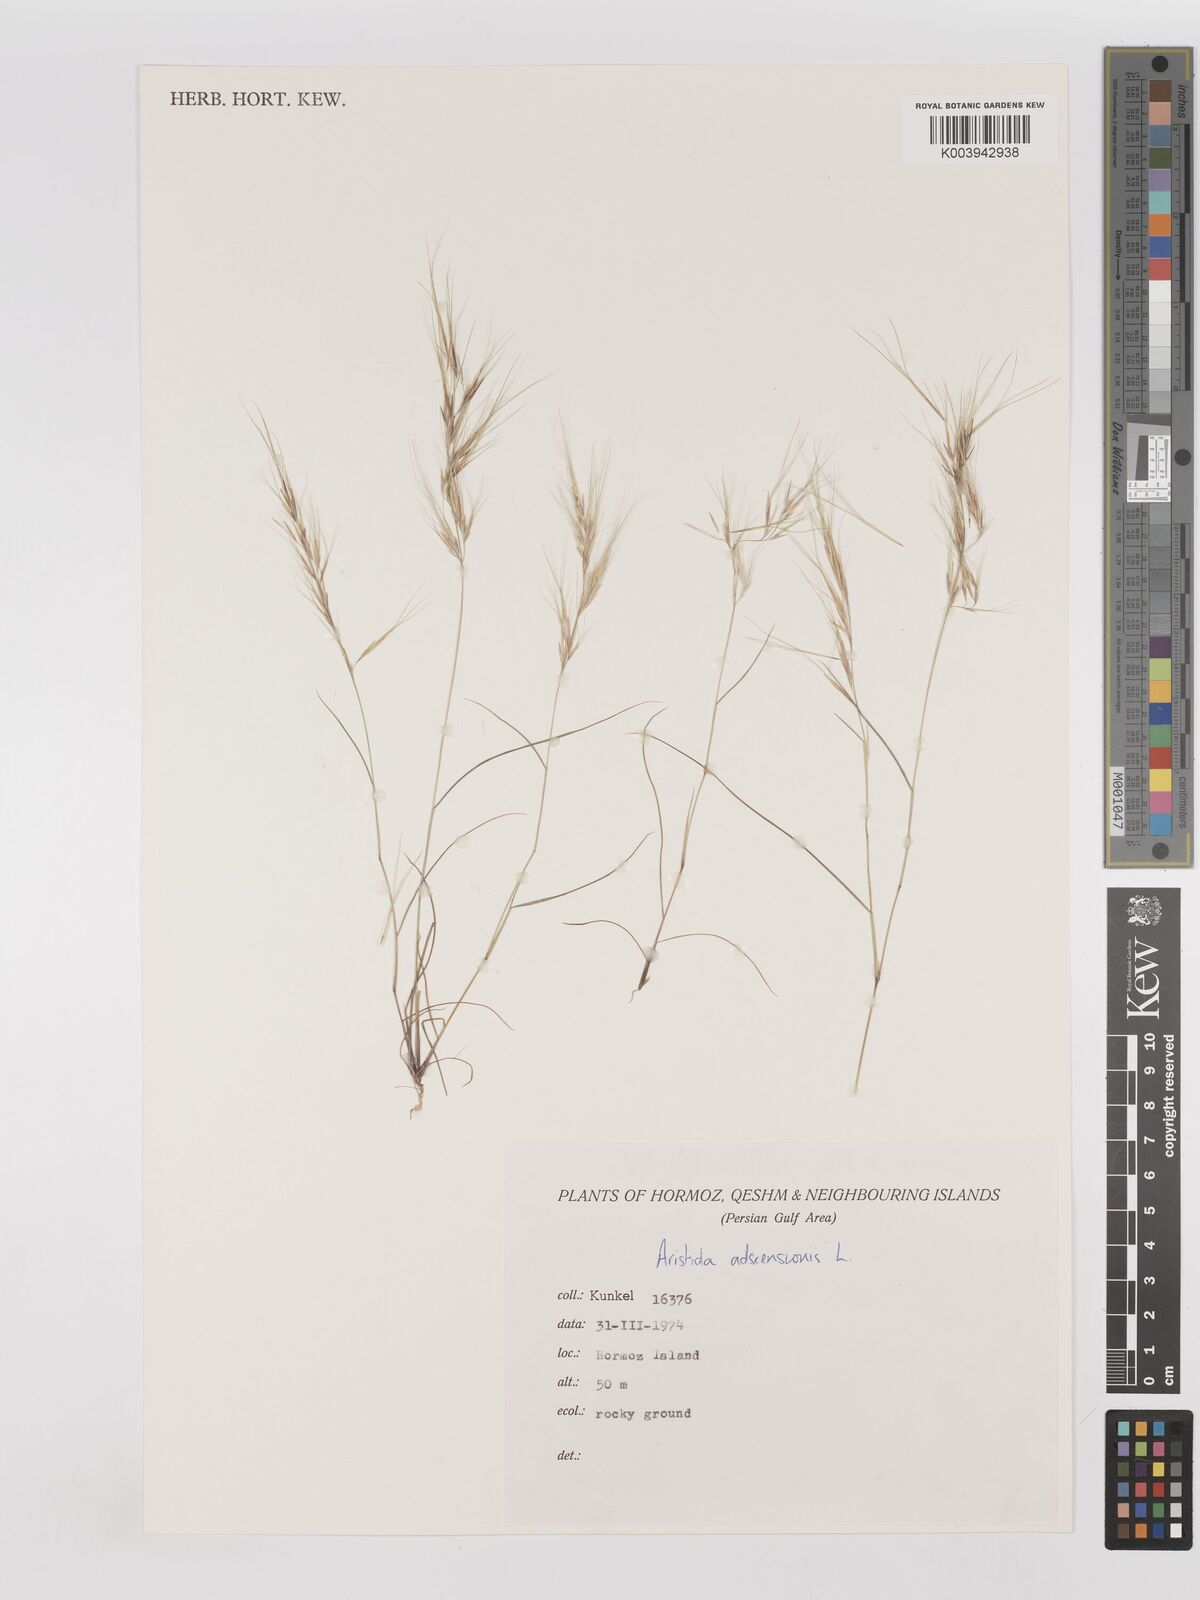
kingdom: Plantae
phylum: Tracheophyta
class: Liliopsida
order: Poales
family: Poaceae
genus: Aristida
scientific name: Aristida adscensionis
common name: Sixweeks threeawn
